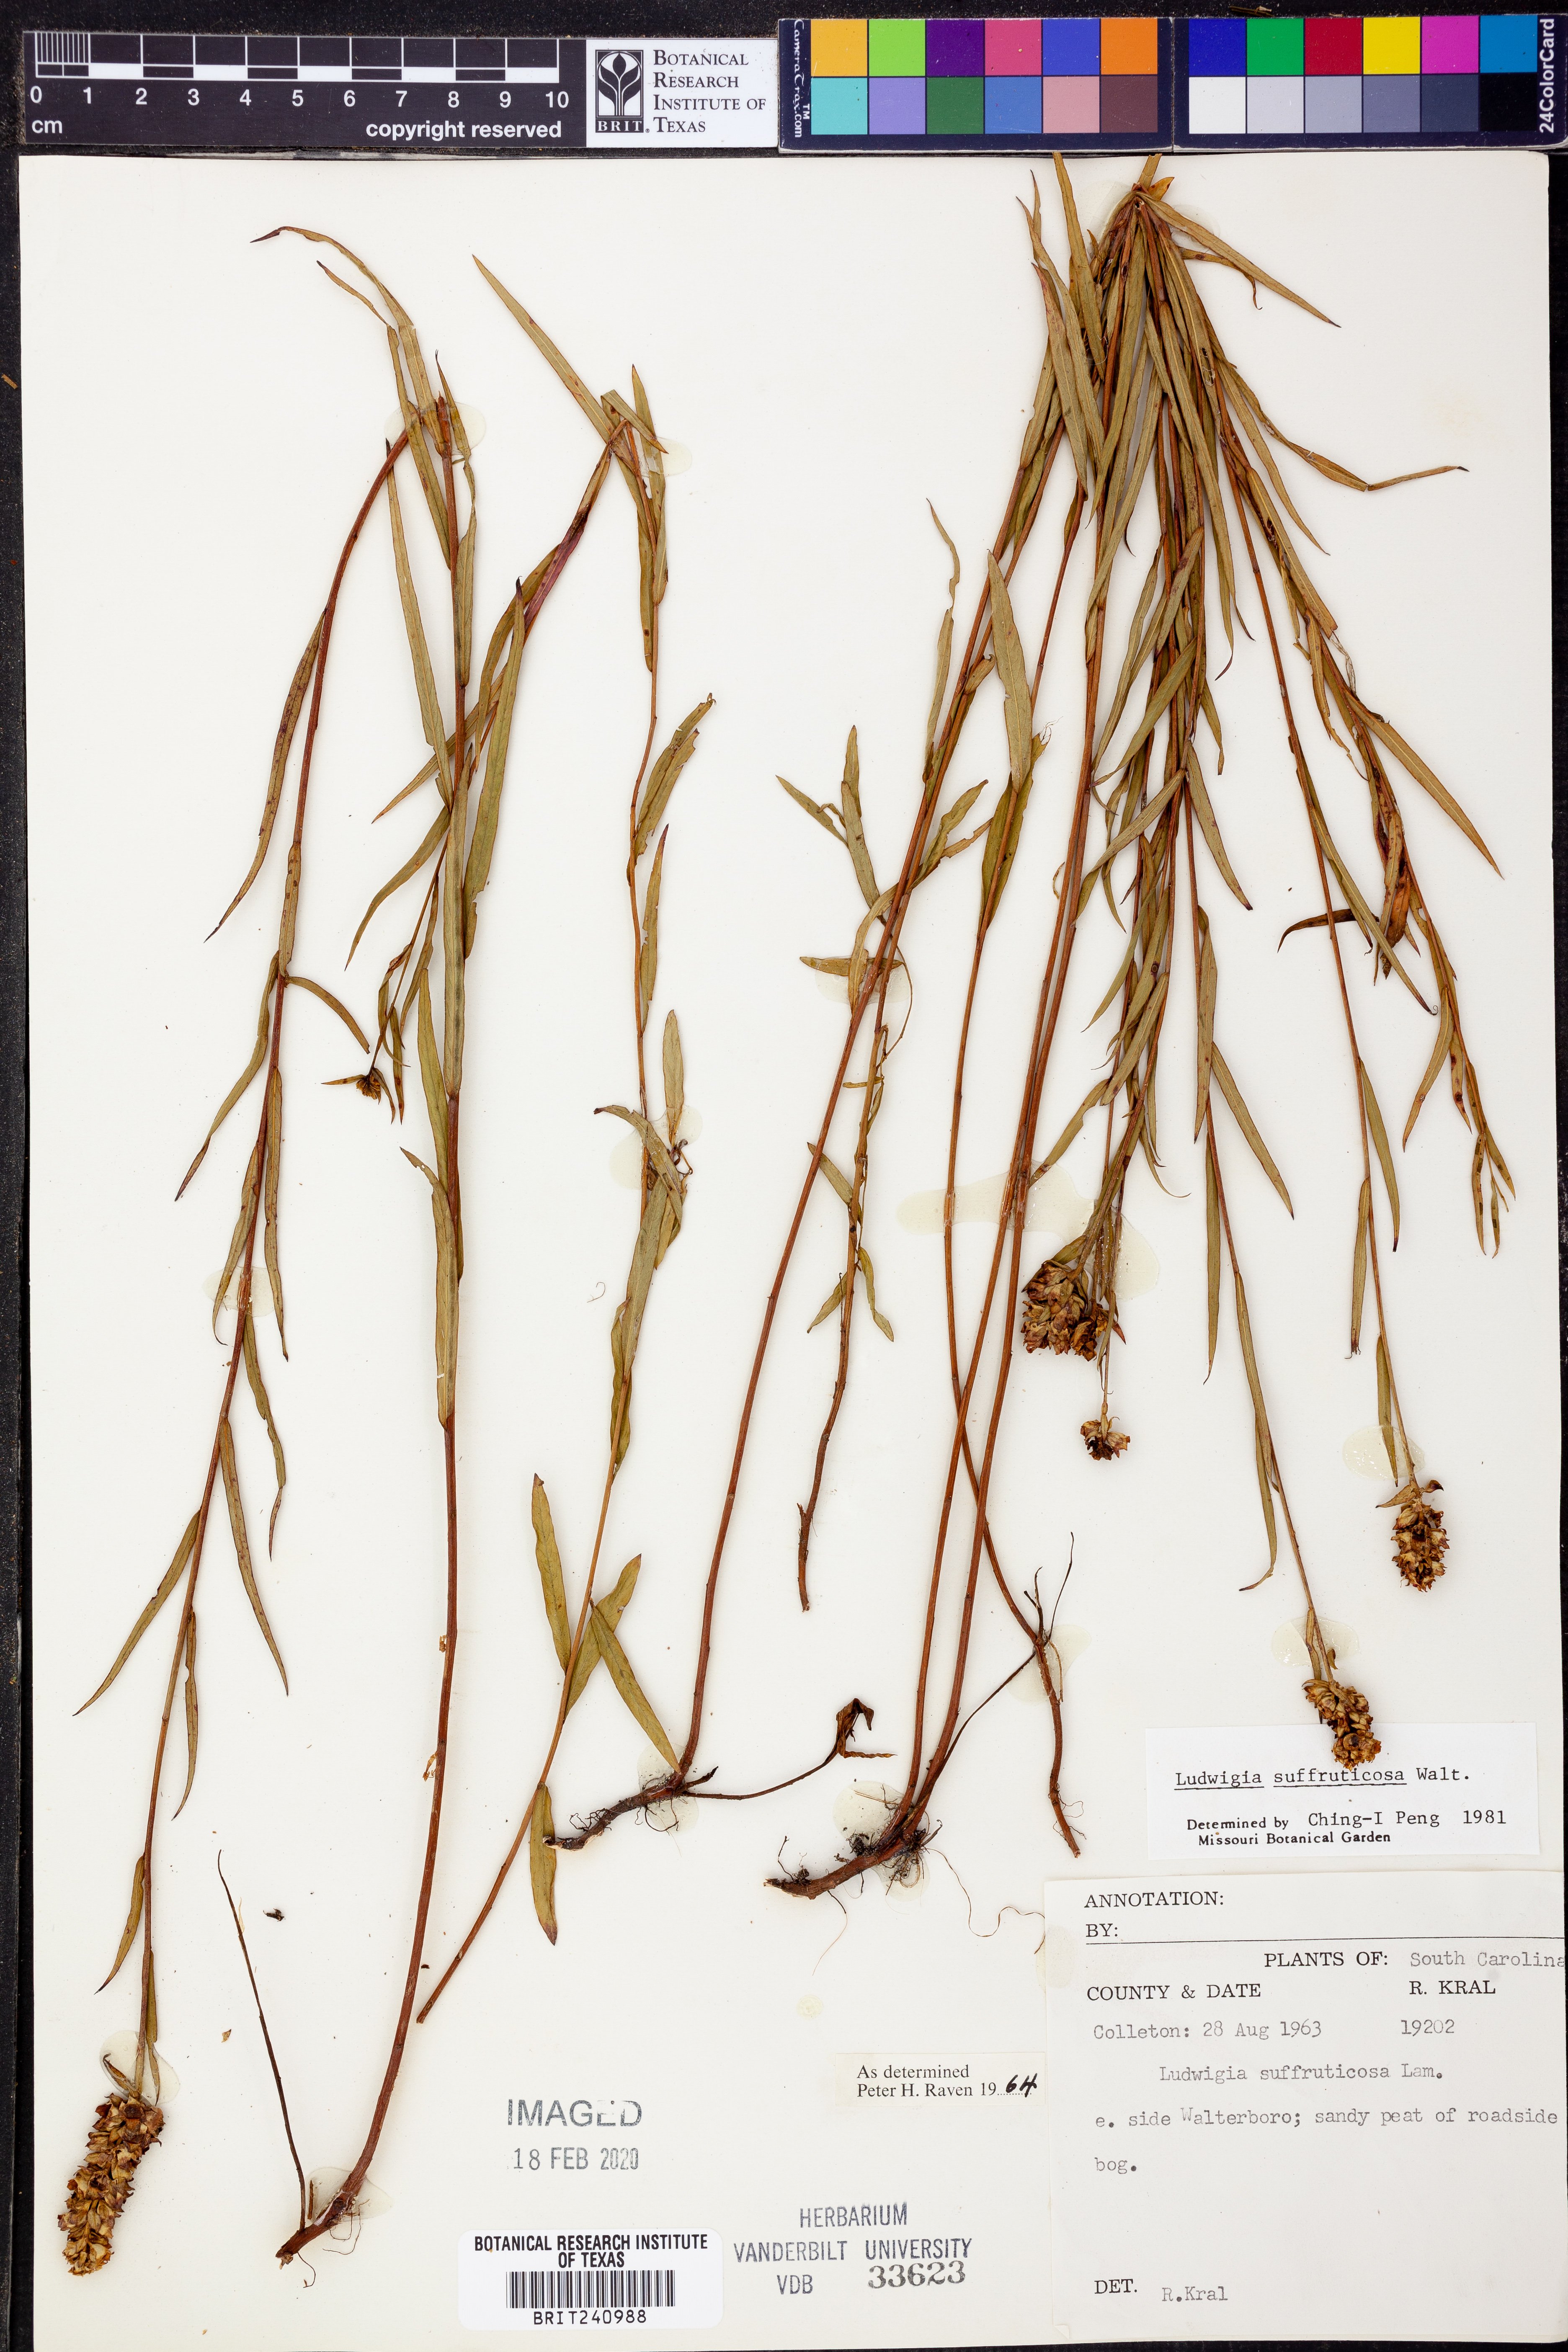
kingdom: Plantae
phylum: Tracheophyta
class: Magnoliopsida
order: Myrtales
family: Onagraceae
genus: Ludwigia
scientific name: Ludwigia suffruticosa
